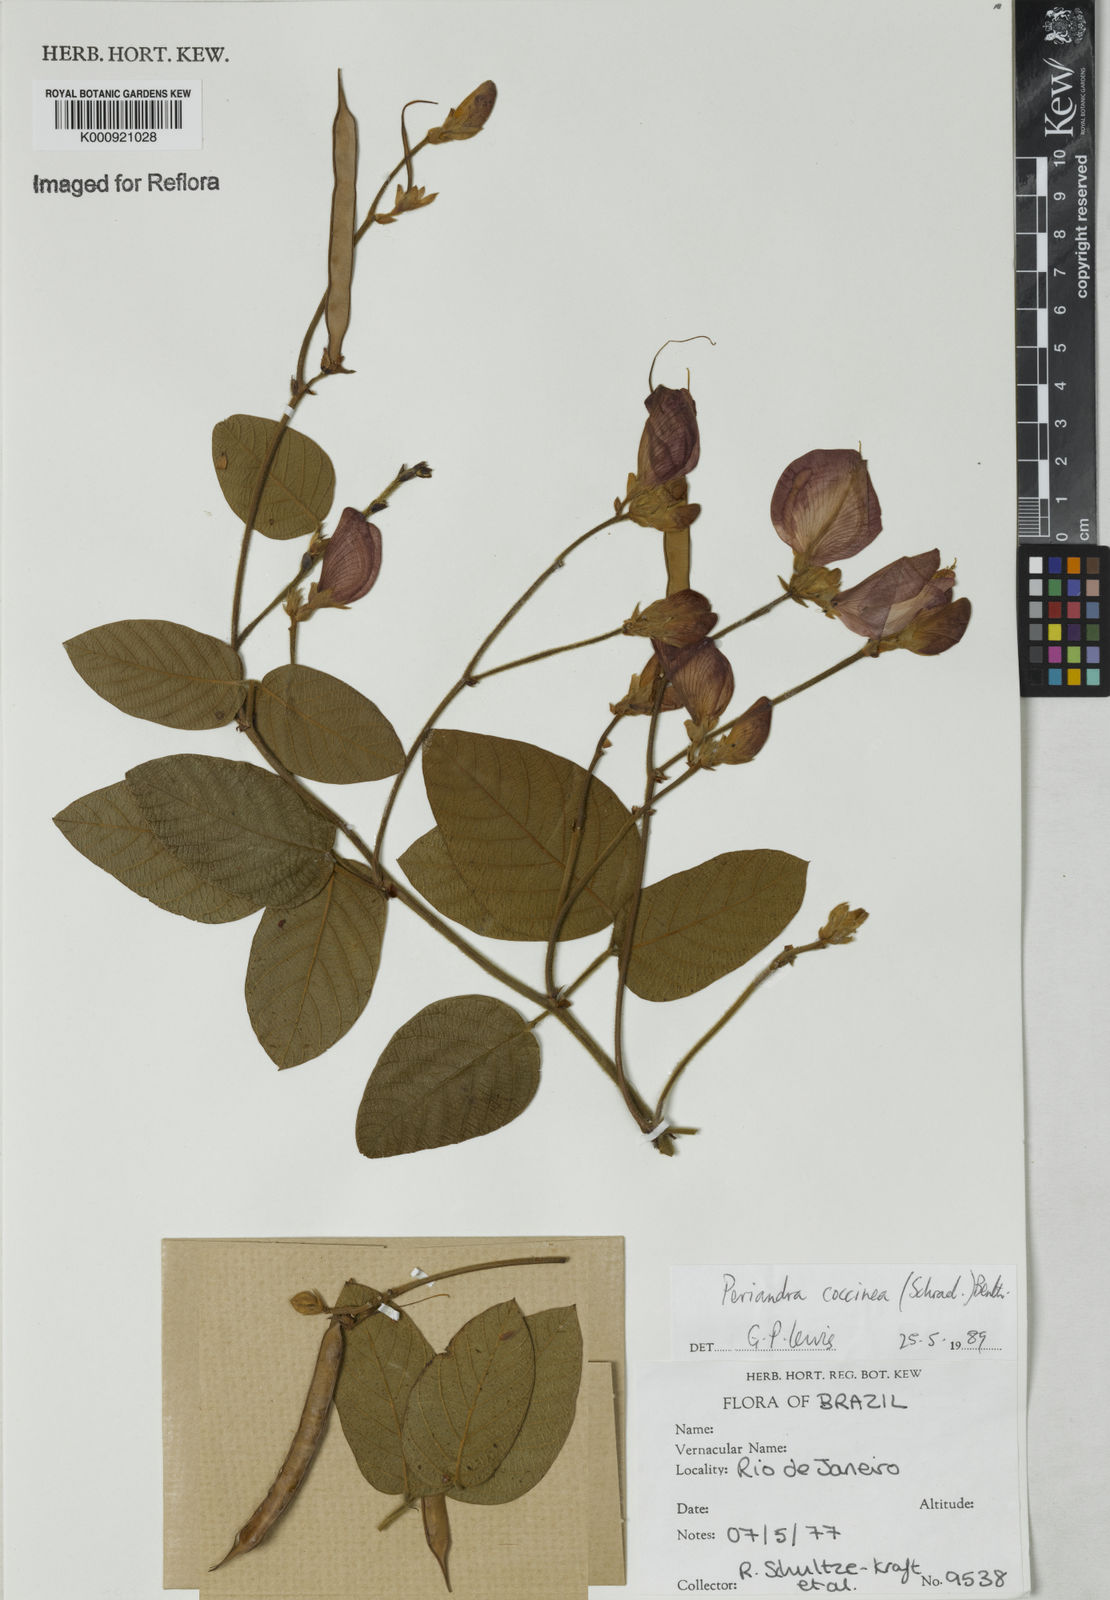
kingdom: Plantae
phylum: Tracheophyta
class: Magnoliopsida
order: Fabales
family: Fabaceae
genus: Periandra
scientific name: Periandra coccinea
